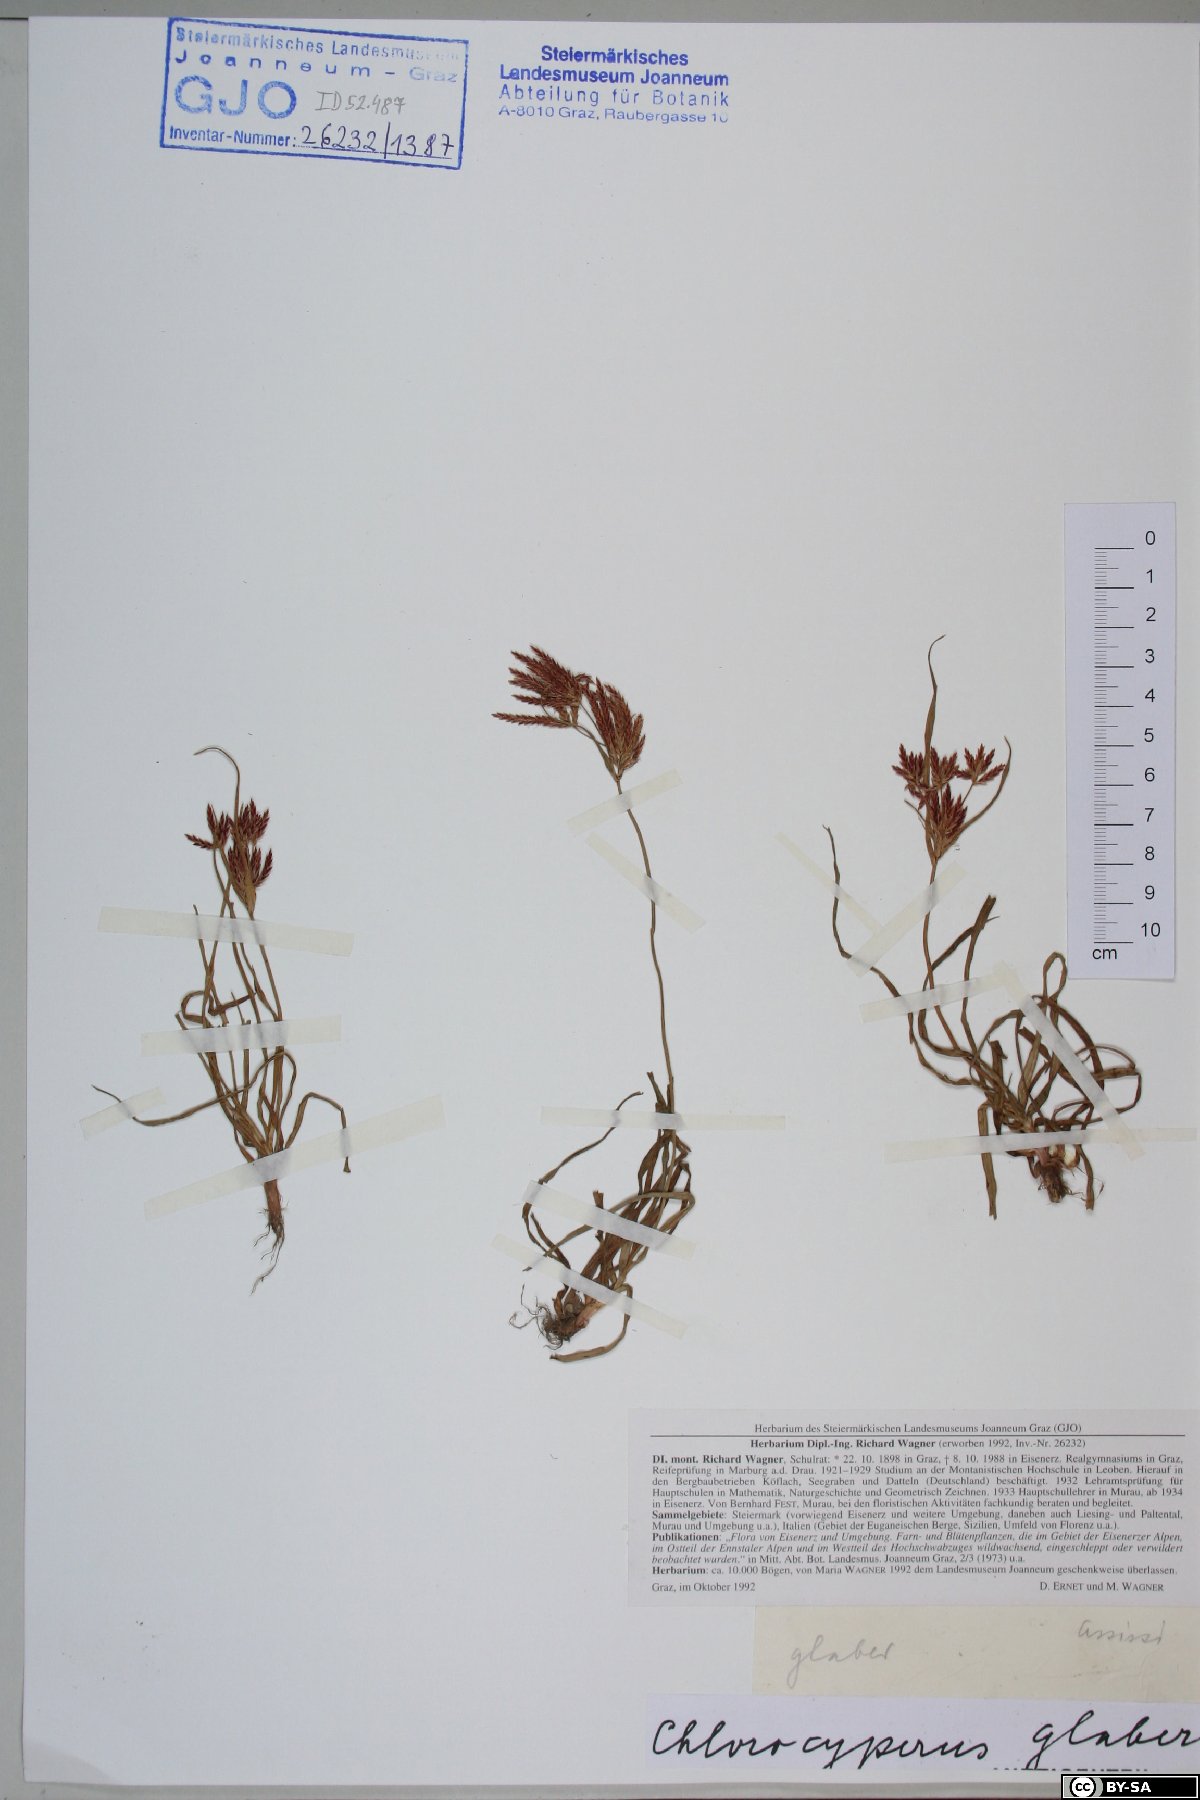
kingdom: Plantae
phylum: Tracheophyta
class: Liliopsida
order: Poales
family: Cyperaceae
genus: Cyperus
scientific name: Cyperus glaber
